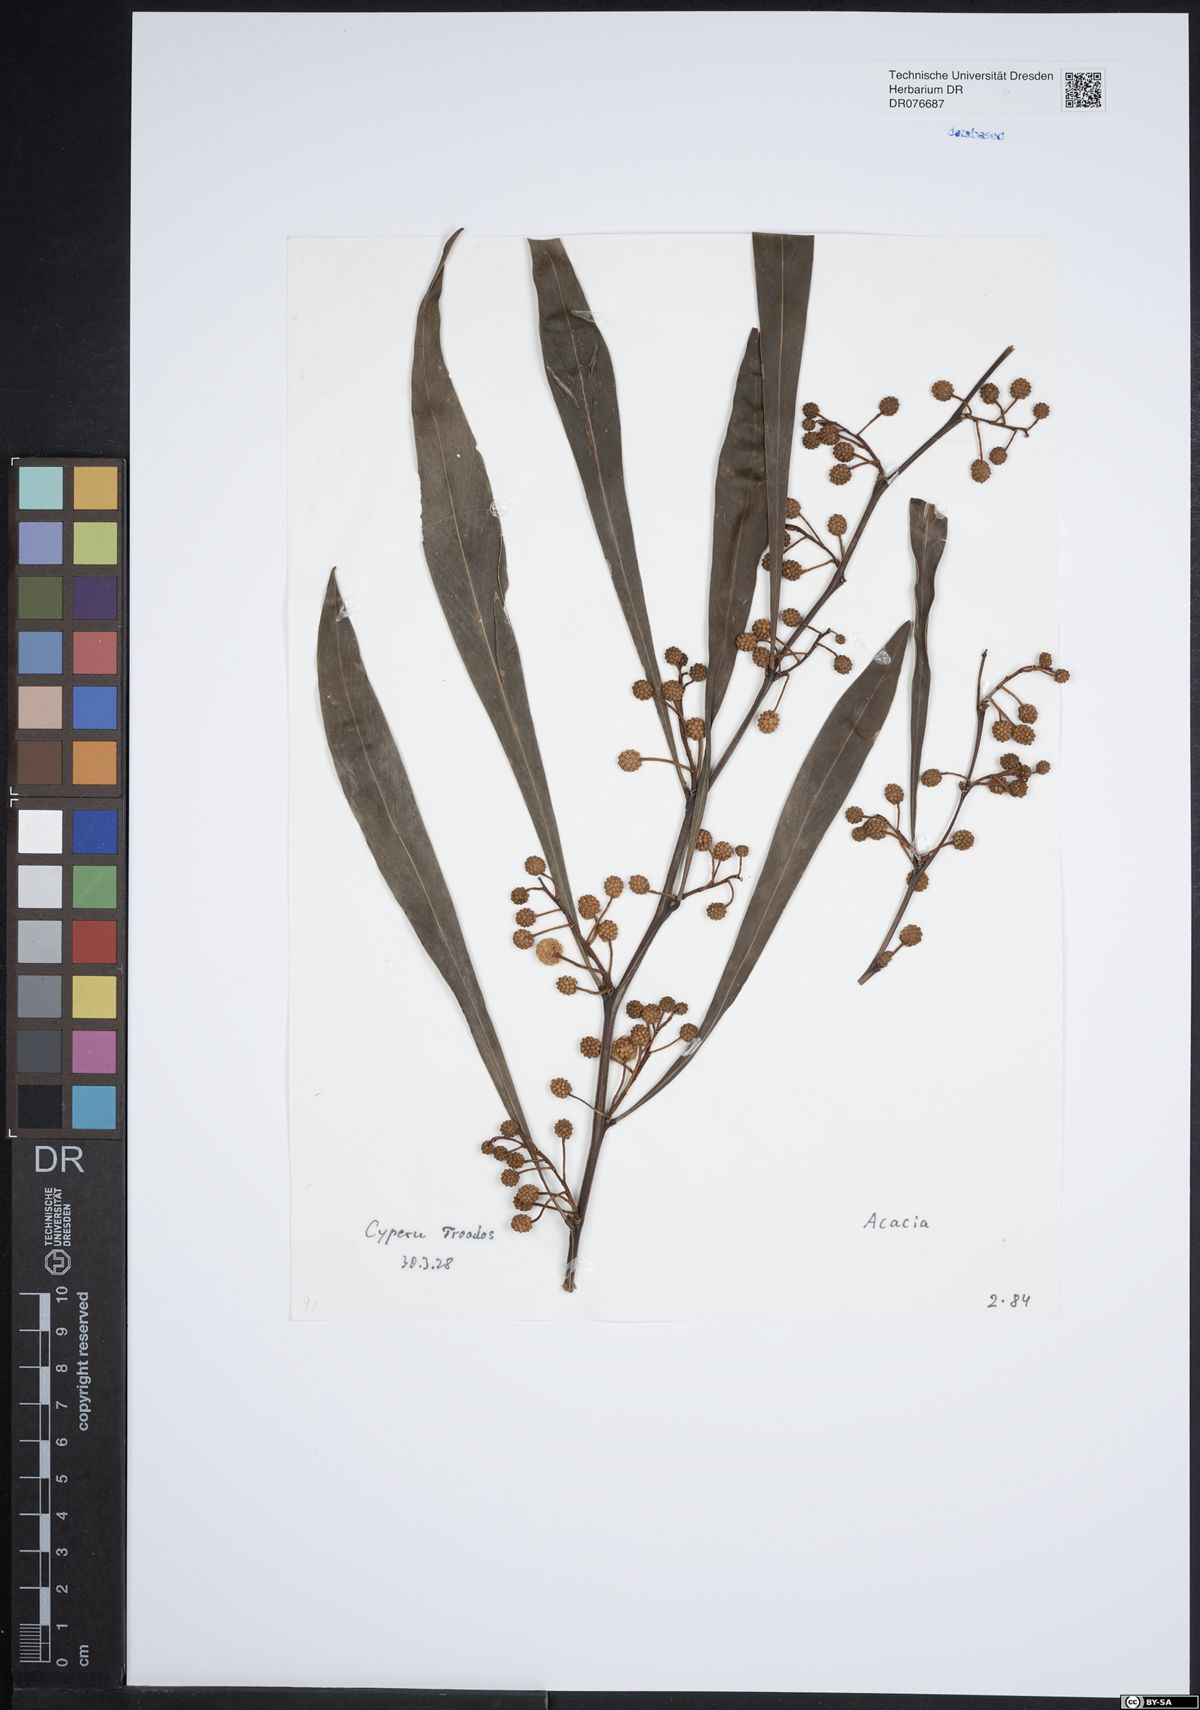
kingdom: Plantae
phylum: Tracheophyta
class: Magnoliopsida
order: Fabales
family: Fabaceae
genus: Acacia
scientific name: Acacia
